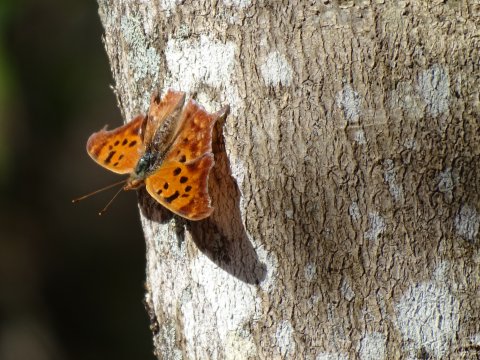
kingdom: Animalia
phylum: Arthropoda
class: Insecta
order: Lepidoptera
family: Nymphalidae
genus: Polygonia
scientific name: Polygonia interrogationis
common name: Question Mark
